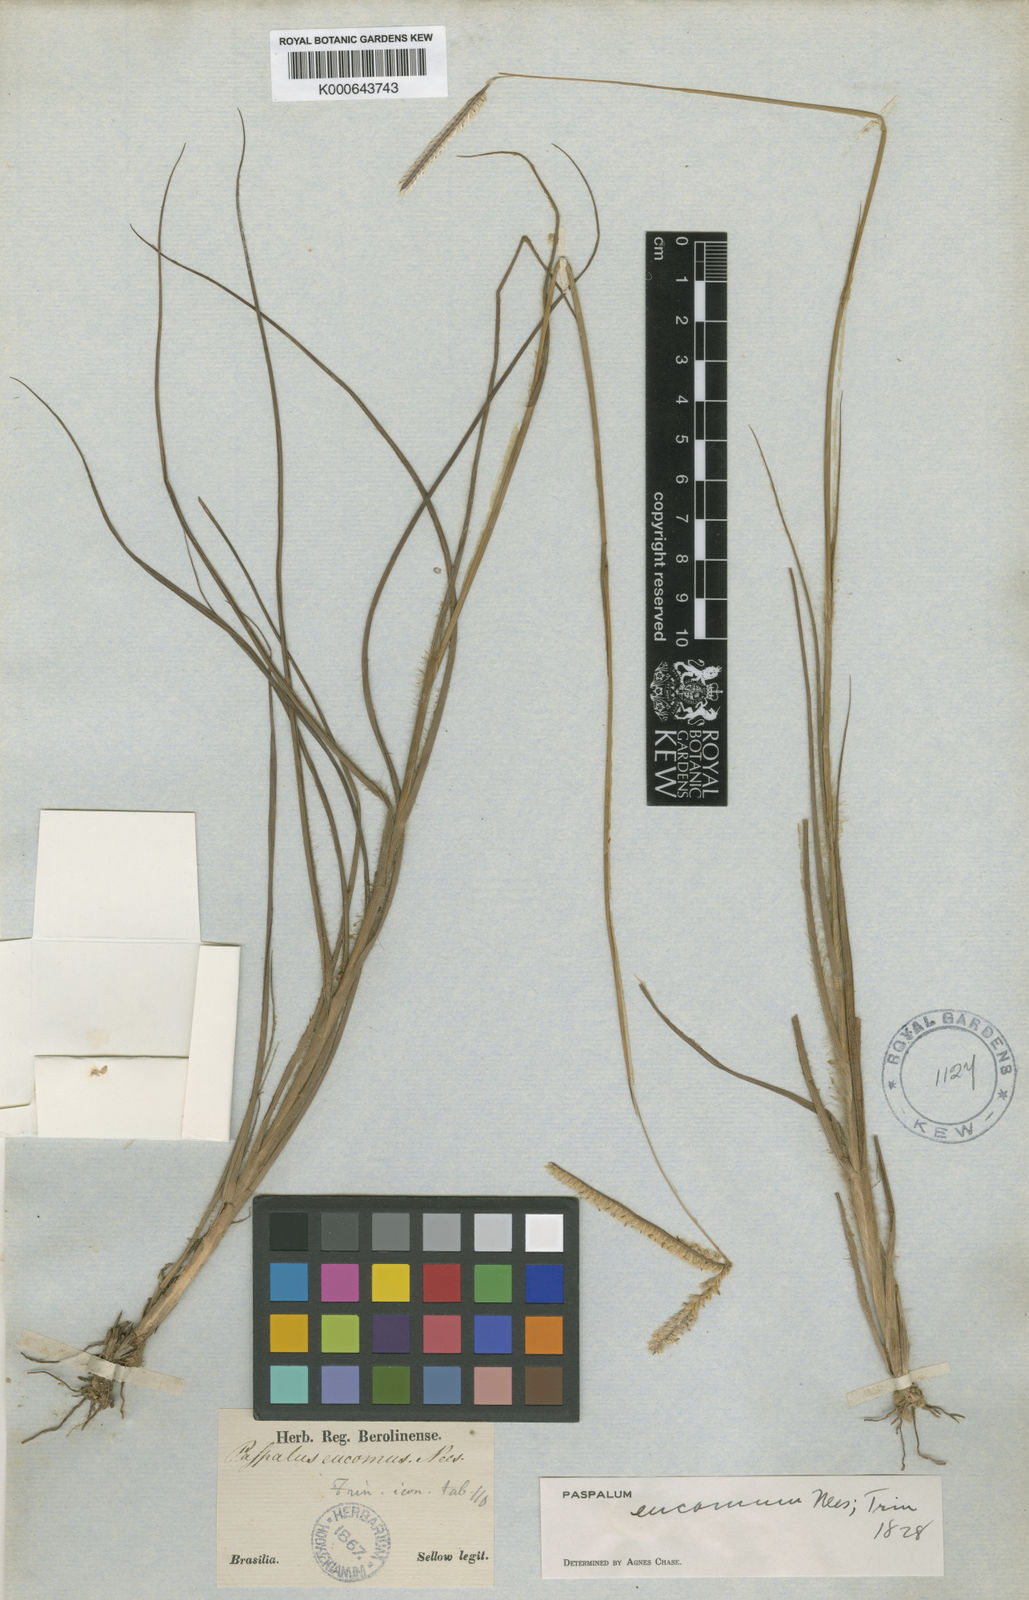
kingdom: Plantae
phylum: Tracheophyta
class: Liliopsida
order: Poales
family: Poaceae
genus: Paspalum
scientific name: Paspalum eucomum
